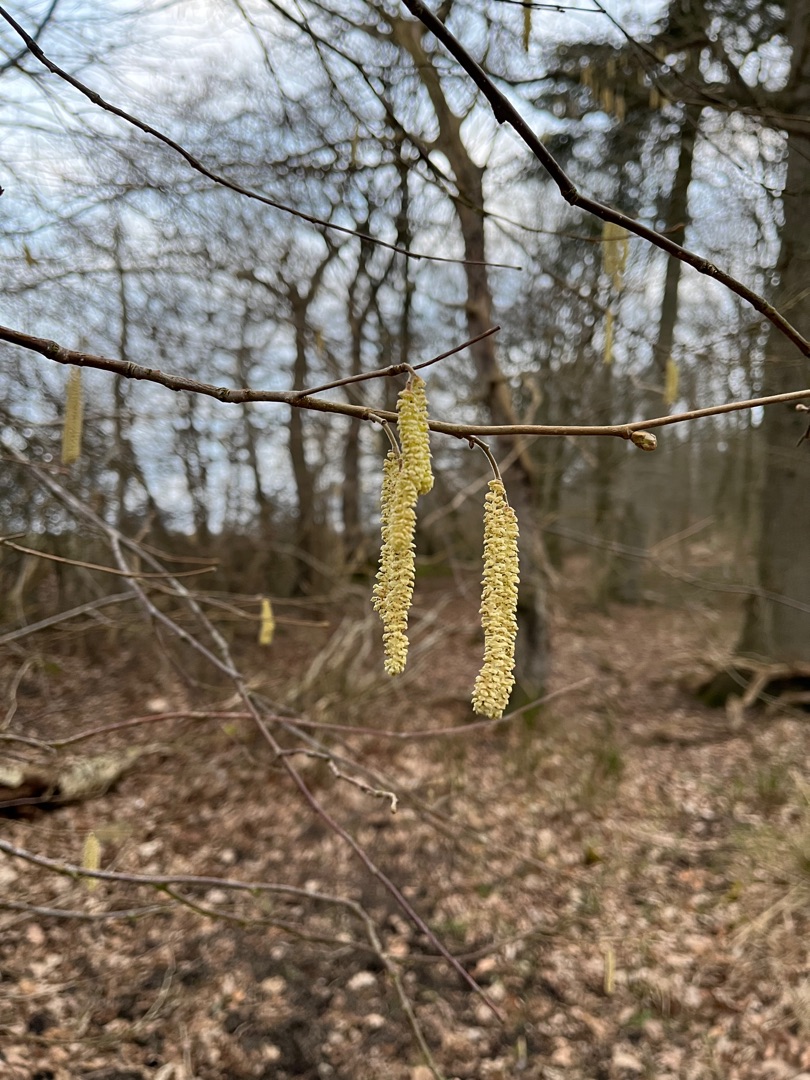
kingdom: Plantae
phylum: Tracheophyta
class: Magnoliopsida
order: Fagales
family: Betulaceae
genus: Corylus
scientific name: Corylus avellana
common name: Hassel
